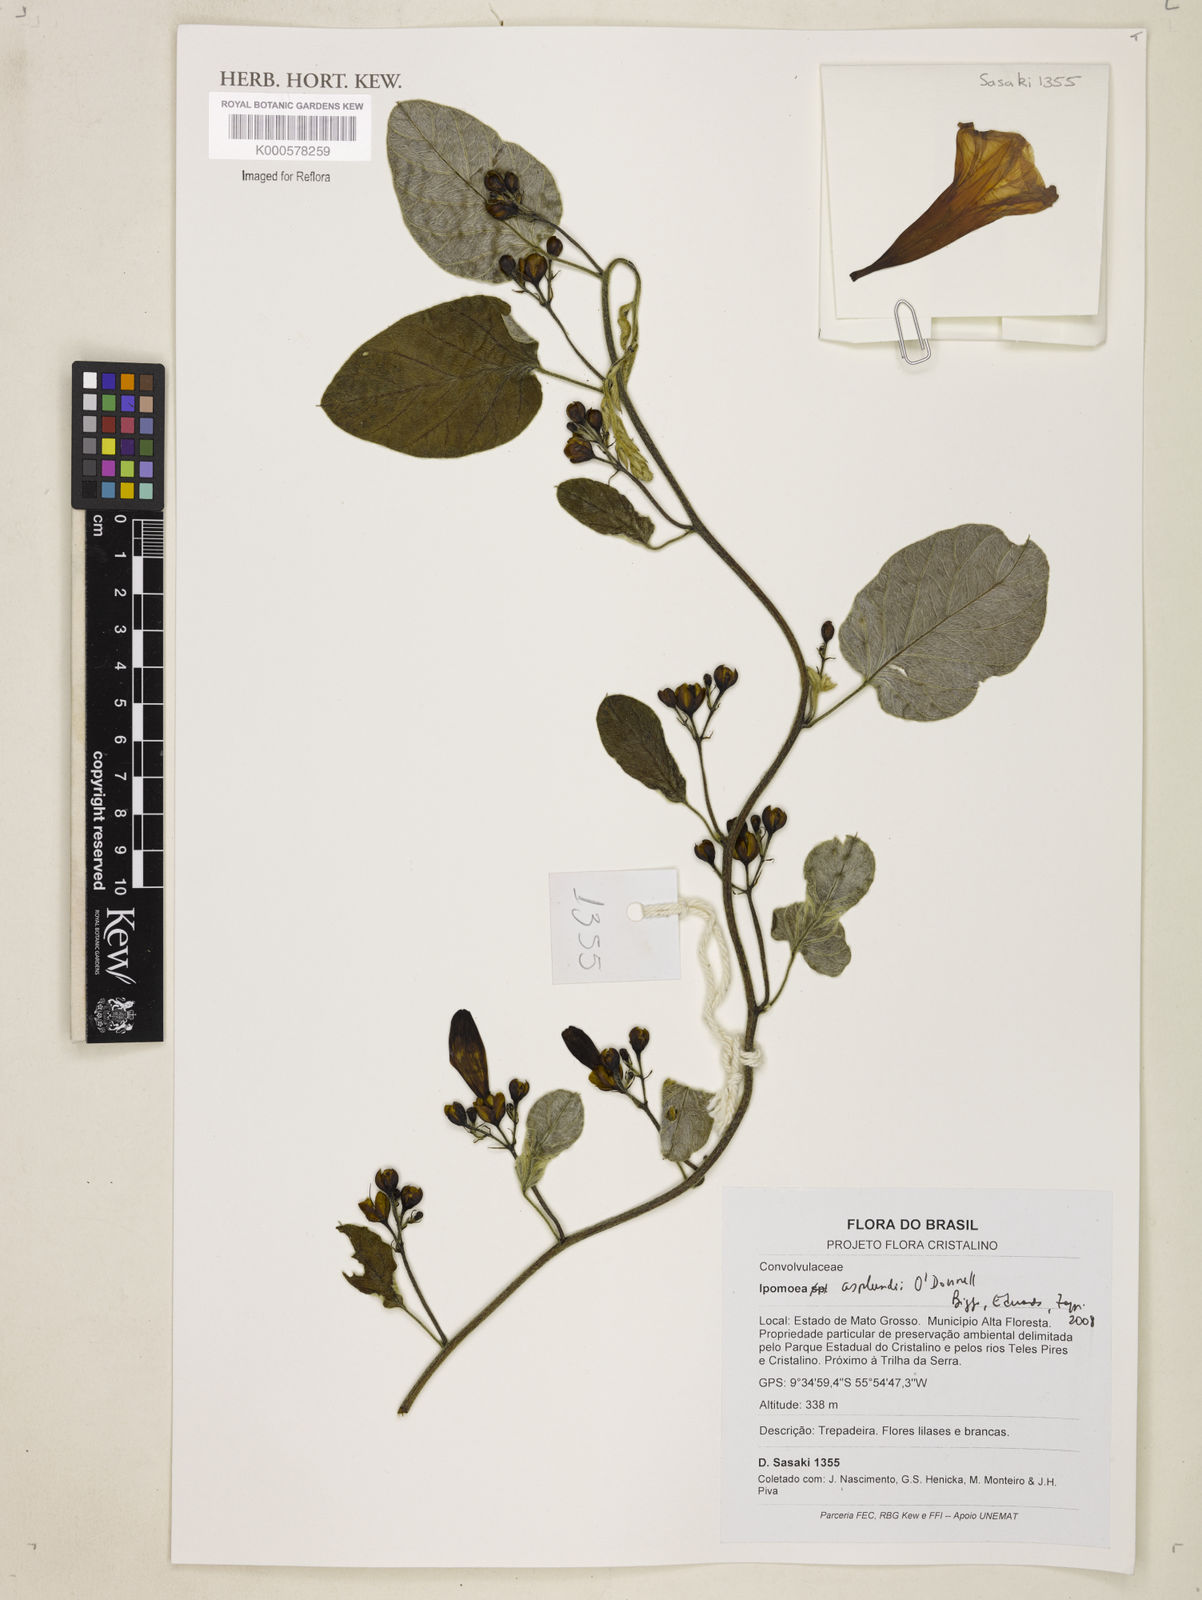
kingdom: Plantae
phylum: Tracheophyta
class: Magnoliopsida
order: Solanales
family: Convolvulaceae
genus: Ipomoea
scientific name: Ipomoea asplundii
